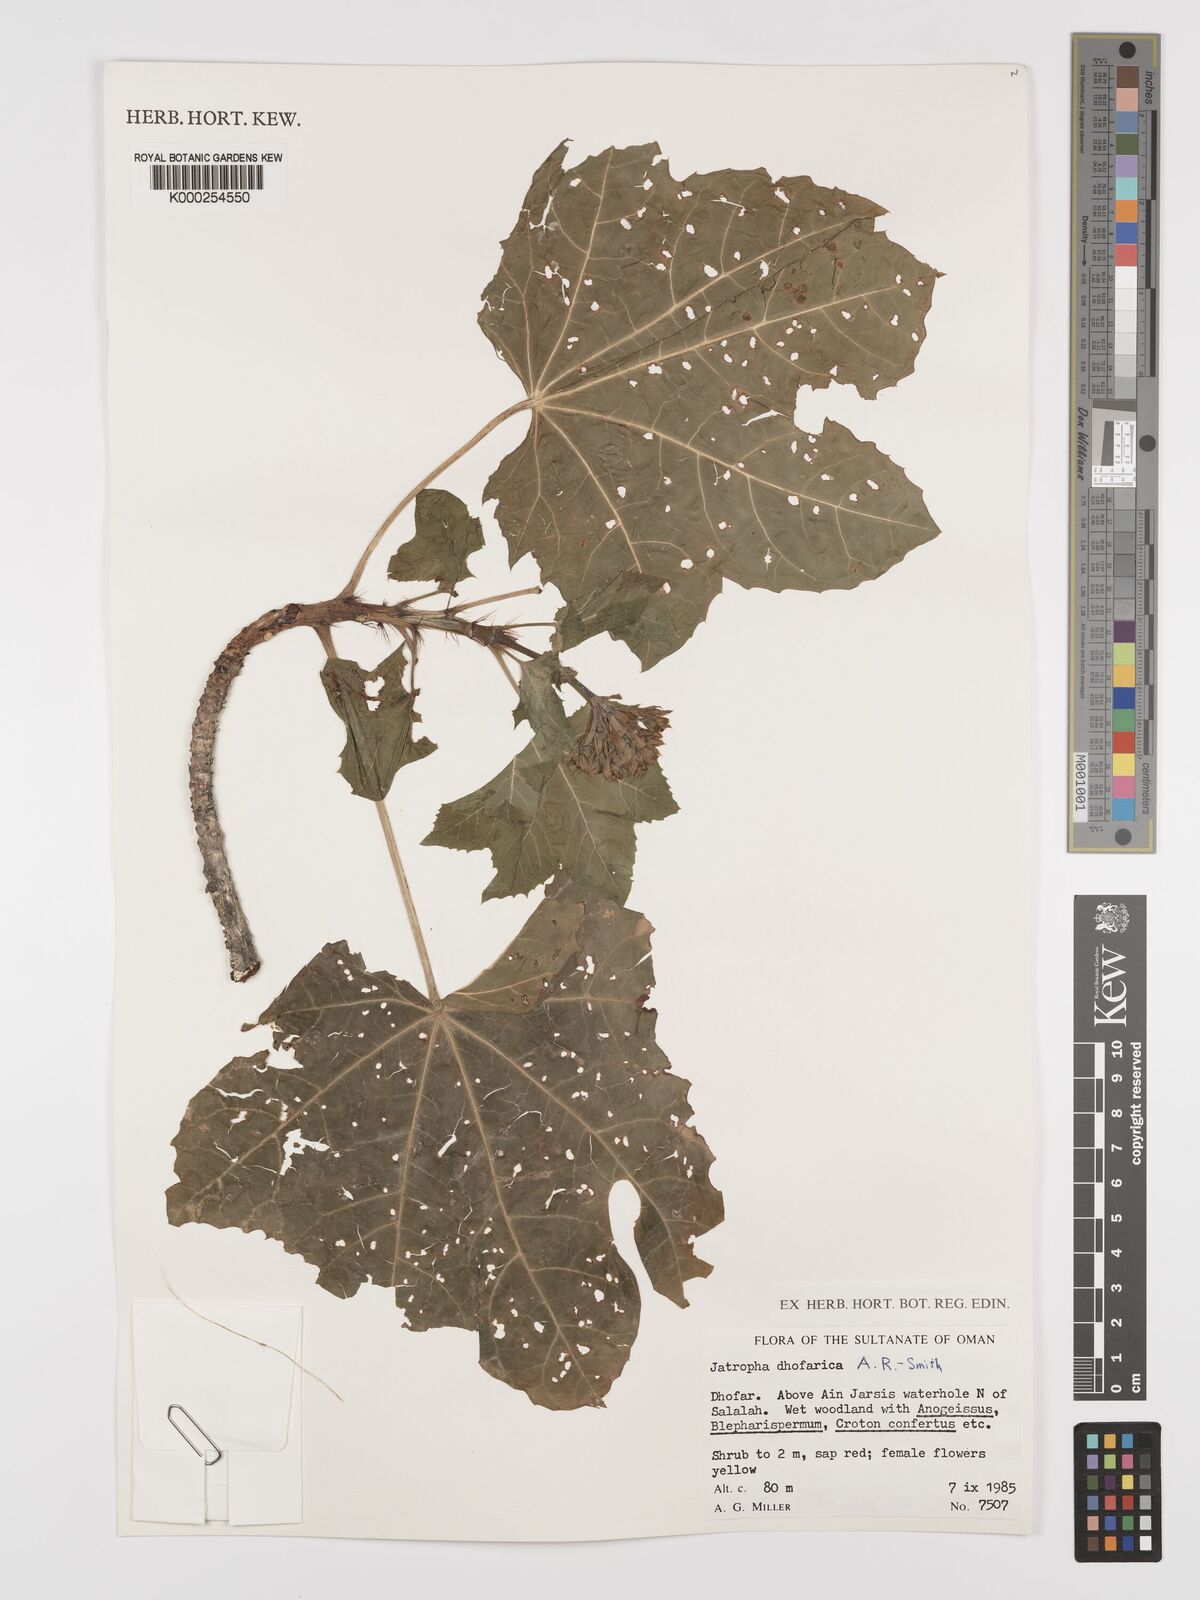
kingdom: Plantae
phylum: Tracheophyta
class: Magnoliopsida
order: Malpighiales
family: Euphorbiaceae
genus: Jatropha
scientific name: Jatropha dhofarica
